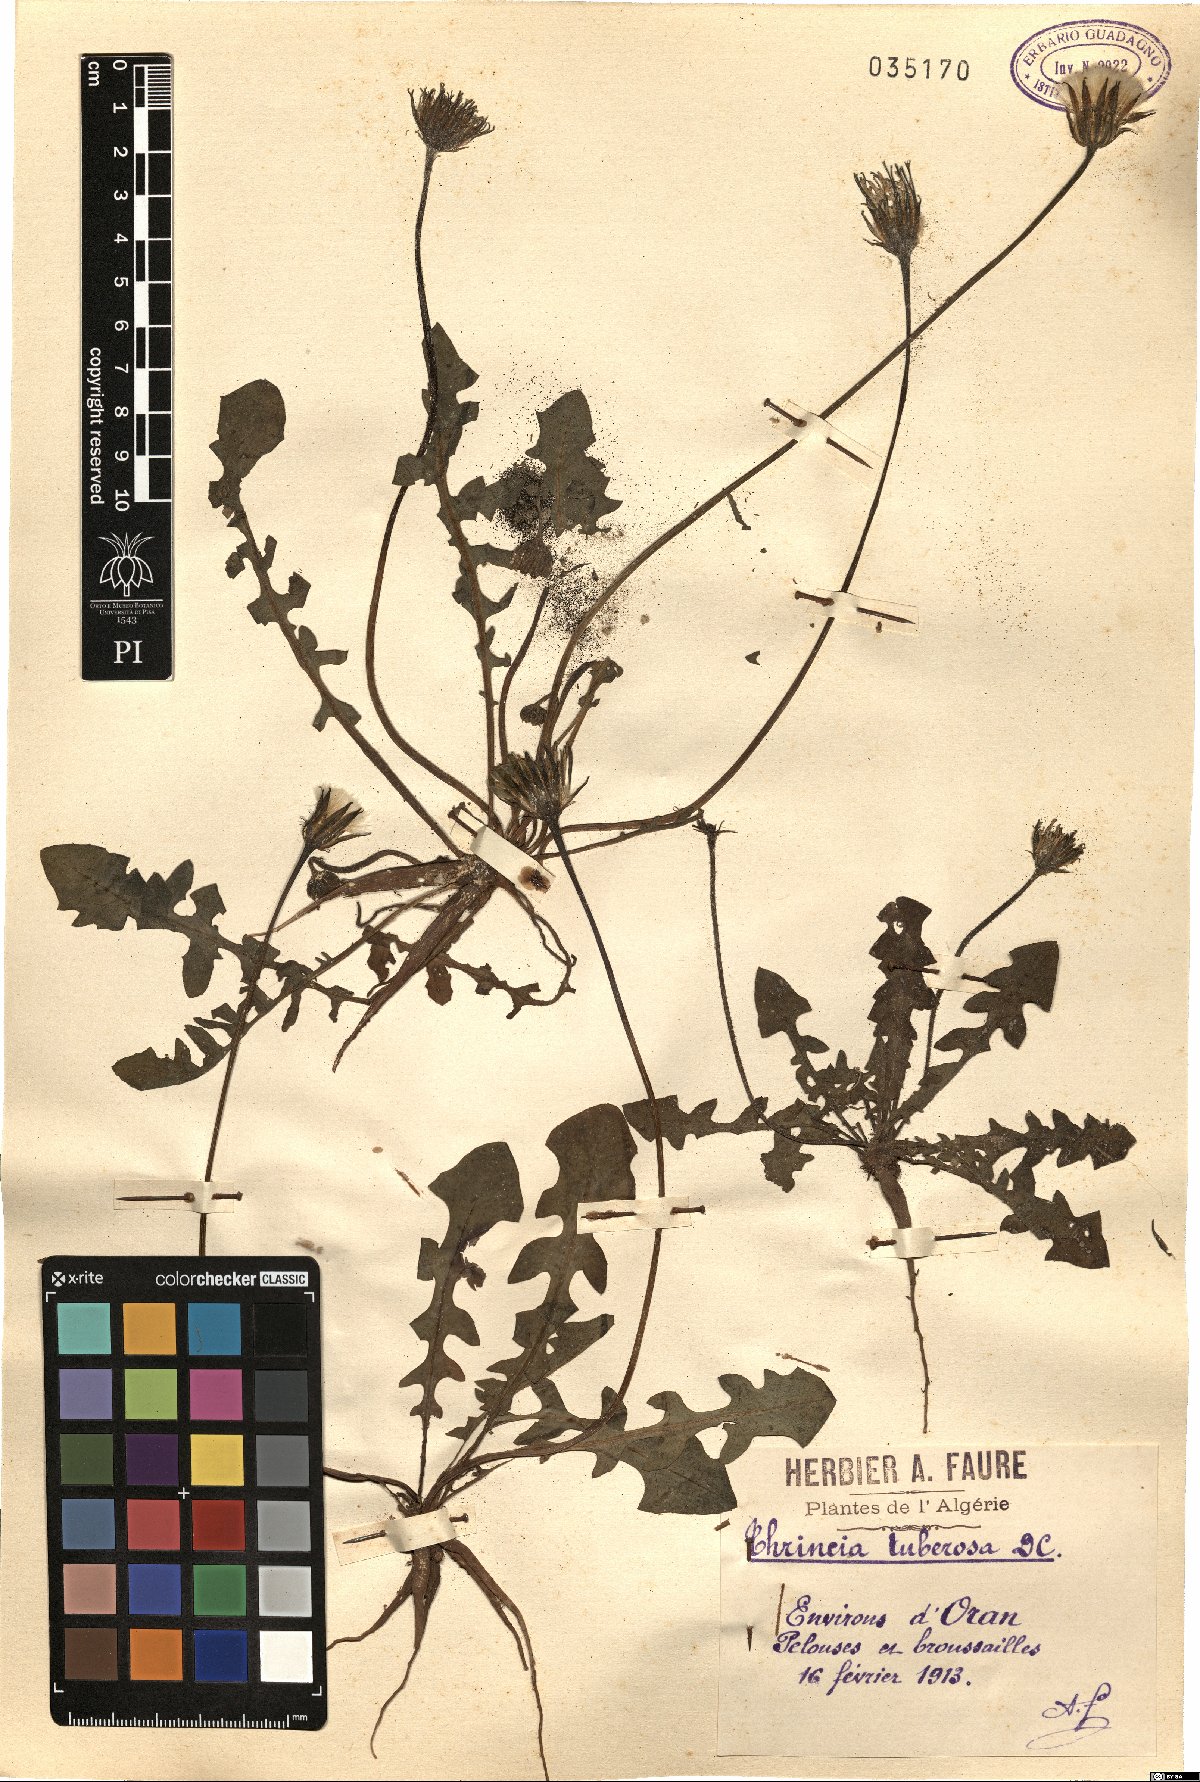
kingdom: Plantae
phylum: Tracheophyta
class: Magnoliopsida
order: Asterales
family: Asteraceae
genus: Thrincia
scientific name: Thrincia tuberosa
